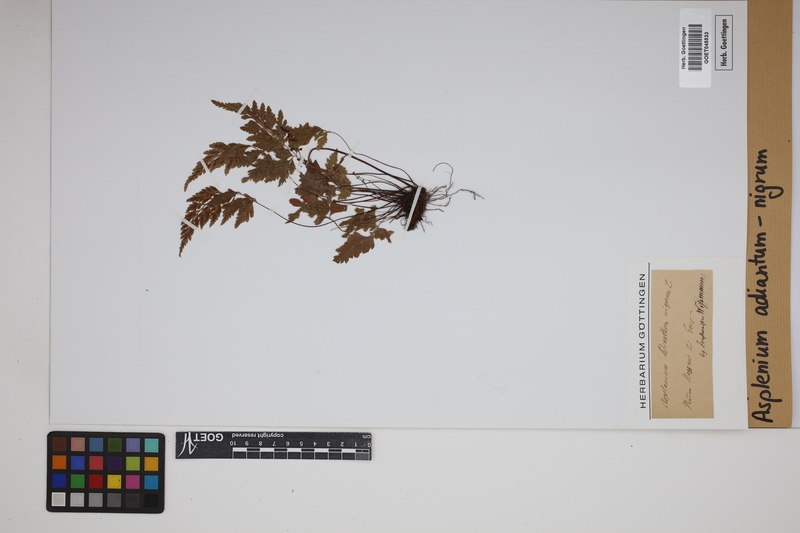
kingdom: Plantae
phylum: Tracheophyta
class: Polypodiopsida
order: Polypodiales
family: Aspleniaceae
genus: Asplenium
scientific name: Asplenium adiantum-nigrum
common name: Black spleenwort
